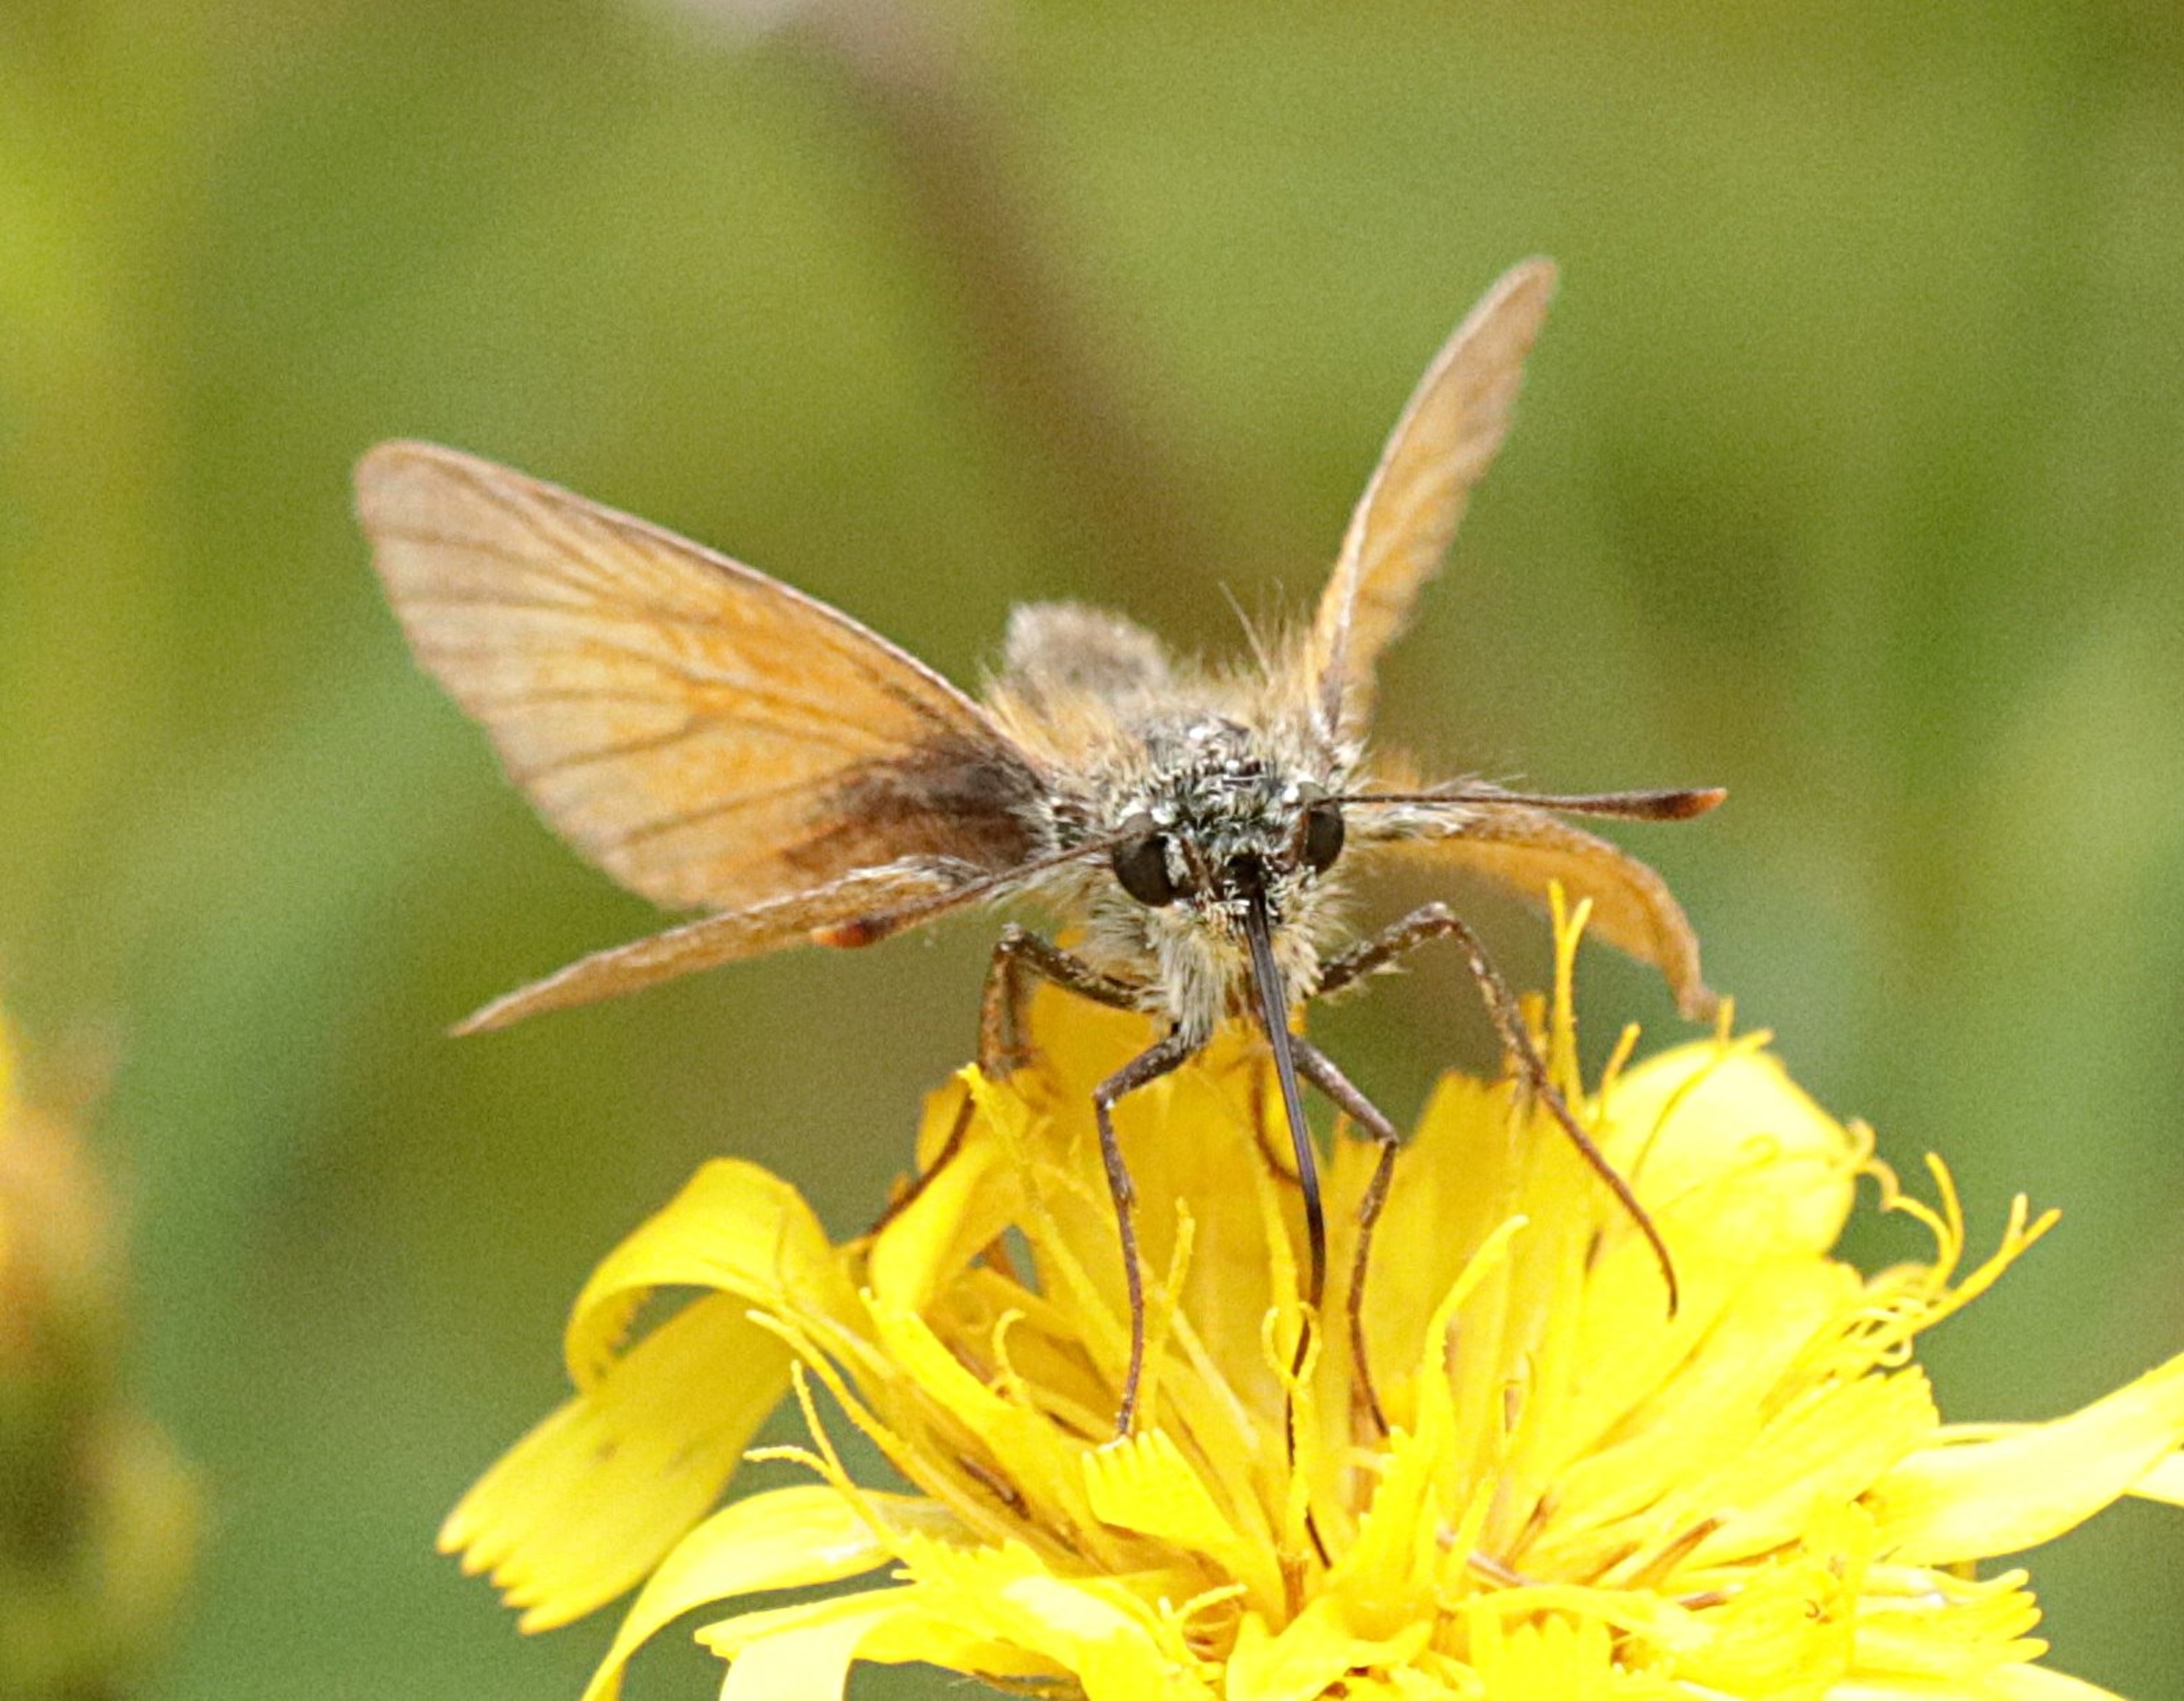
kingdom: Animalia
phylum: Arthropoda
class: Insecta
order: Lepidoptera
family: Hesperiidae
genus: Thymelicus
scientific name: Thymelicus sylvestris
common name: Skråstregbredpande
